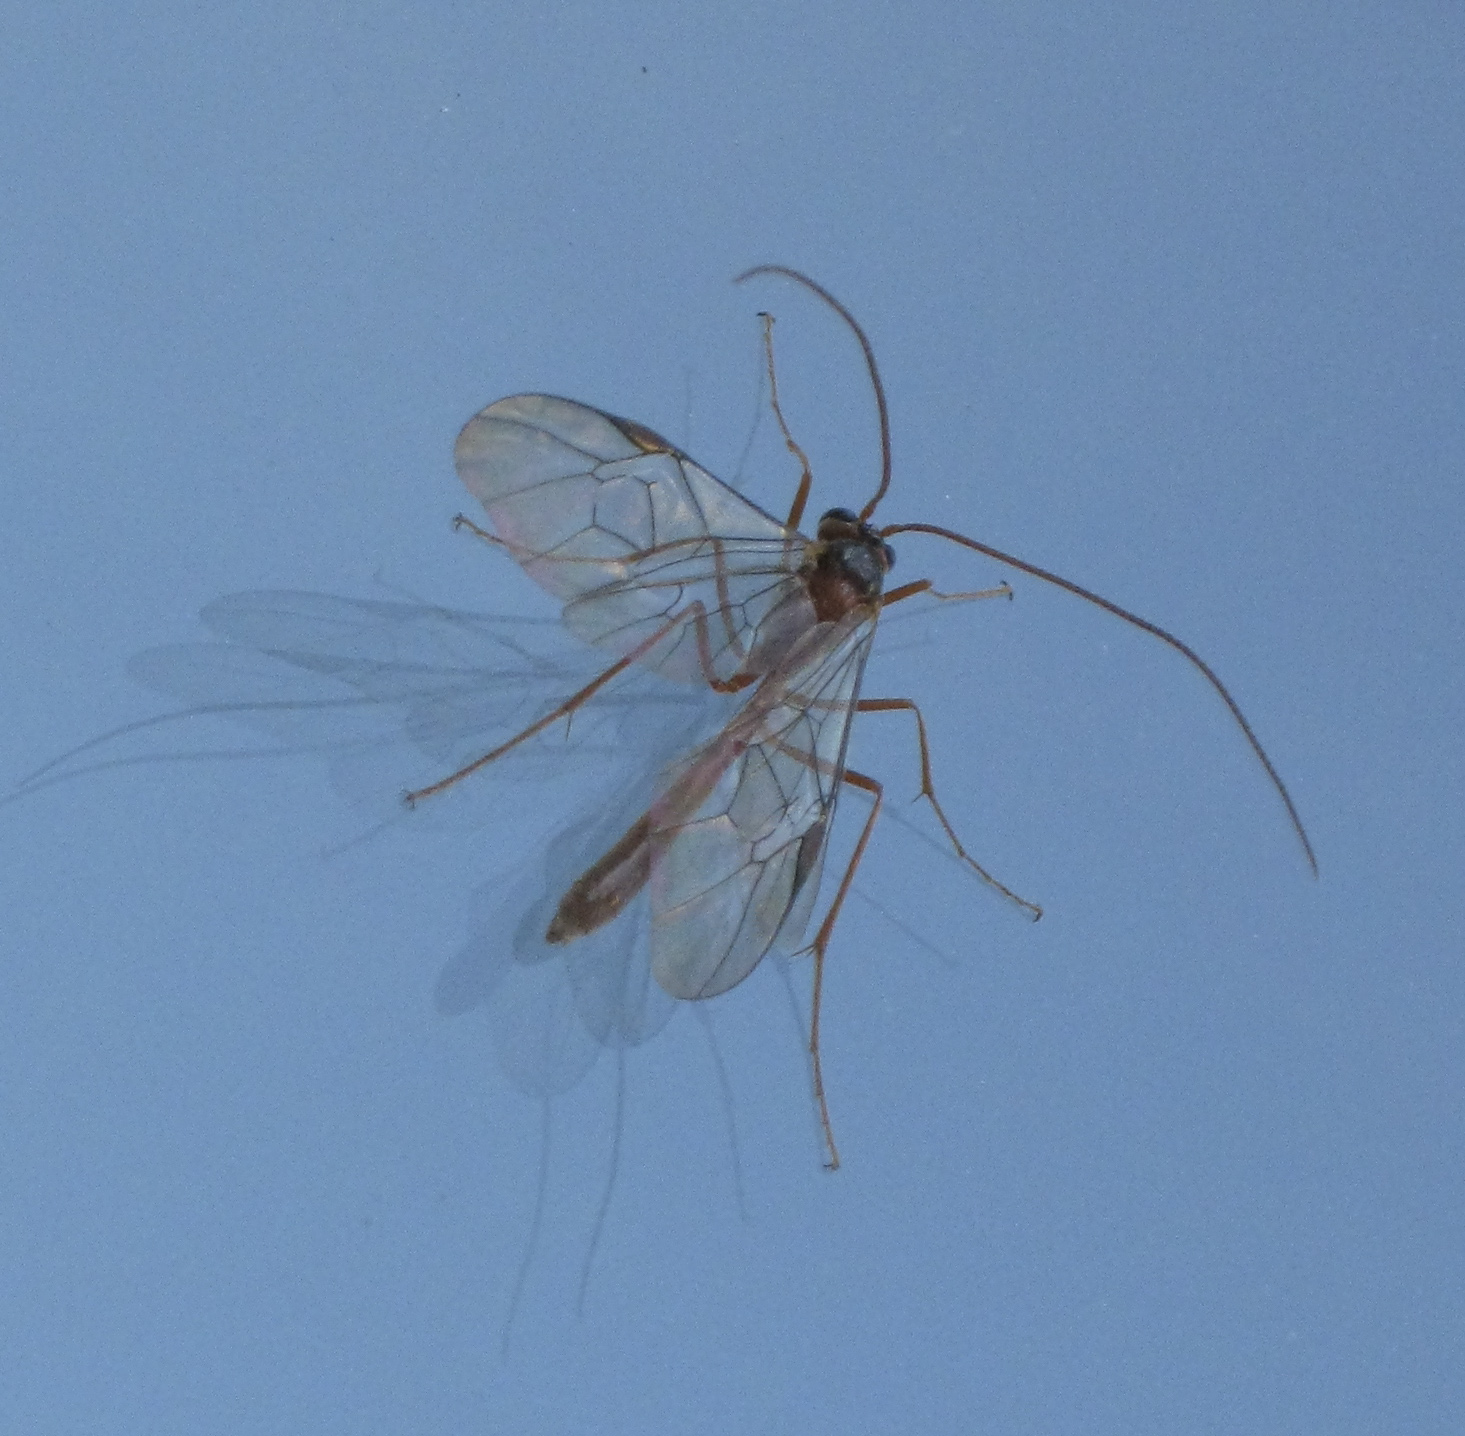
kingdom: Animalia
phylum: Arthropoda
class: Insecta
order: Hymenoptera
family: Ichneumonidae
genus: Ophion
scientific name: Ophion
